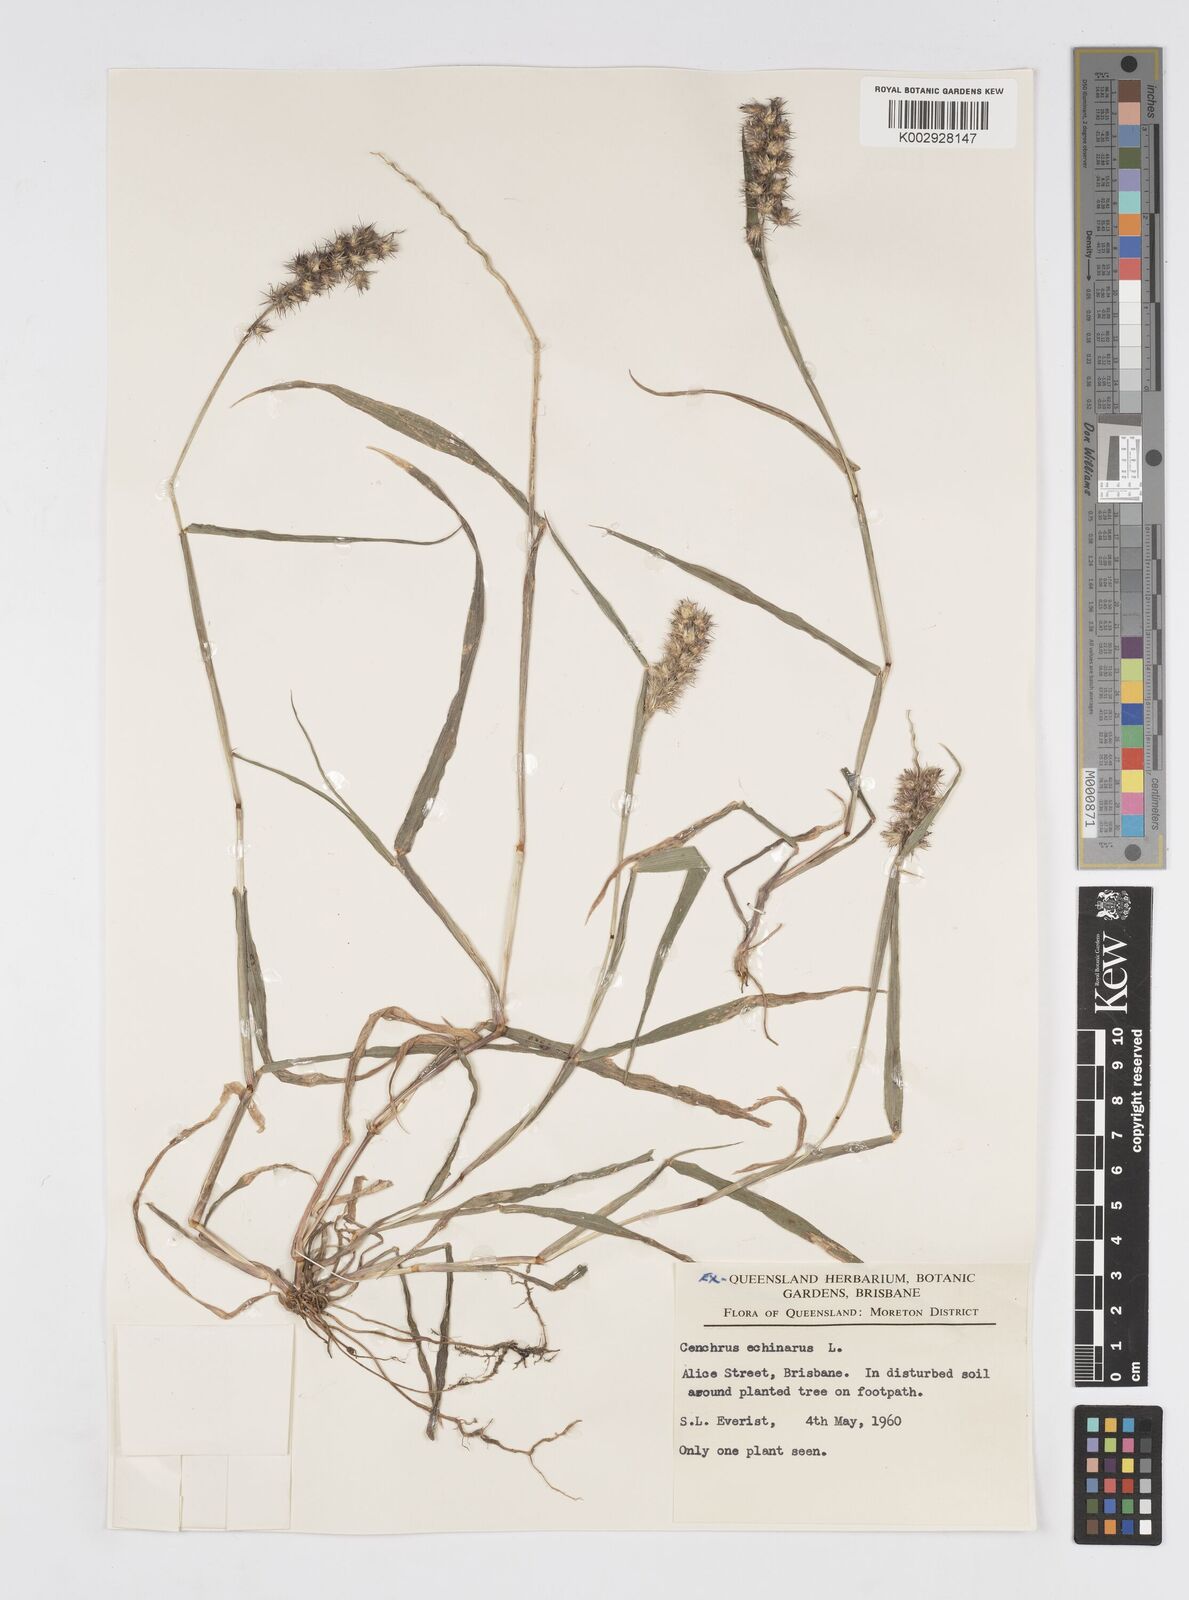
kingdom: Plantae
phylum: Tracheophyta
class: Liliopsida
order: Poales
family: Poaceae
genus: Cenchrus
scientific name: Cenchrus echinatus
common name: Southern sandbur
